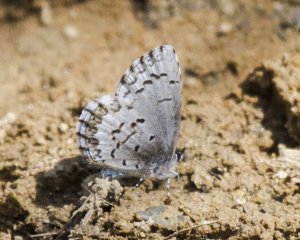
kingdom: Animalia
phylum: Arthropoda
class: Insecta
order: Lepidoptera
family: Lycaenidae
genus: Celastrina
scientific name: Celastrina lucia
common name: Northern Spring Azure
